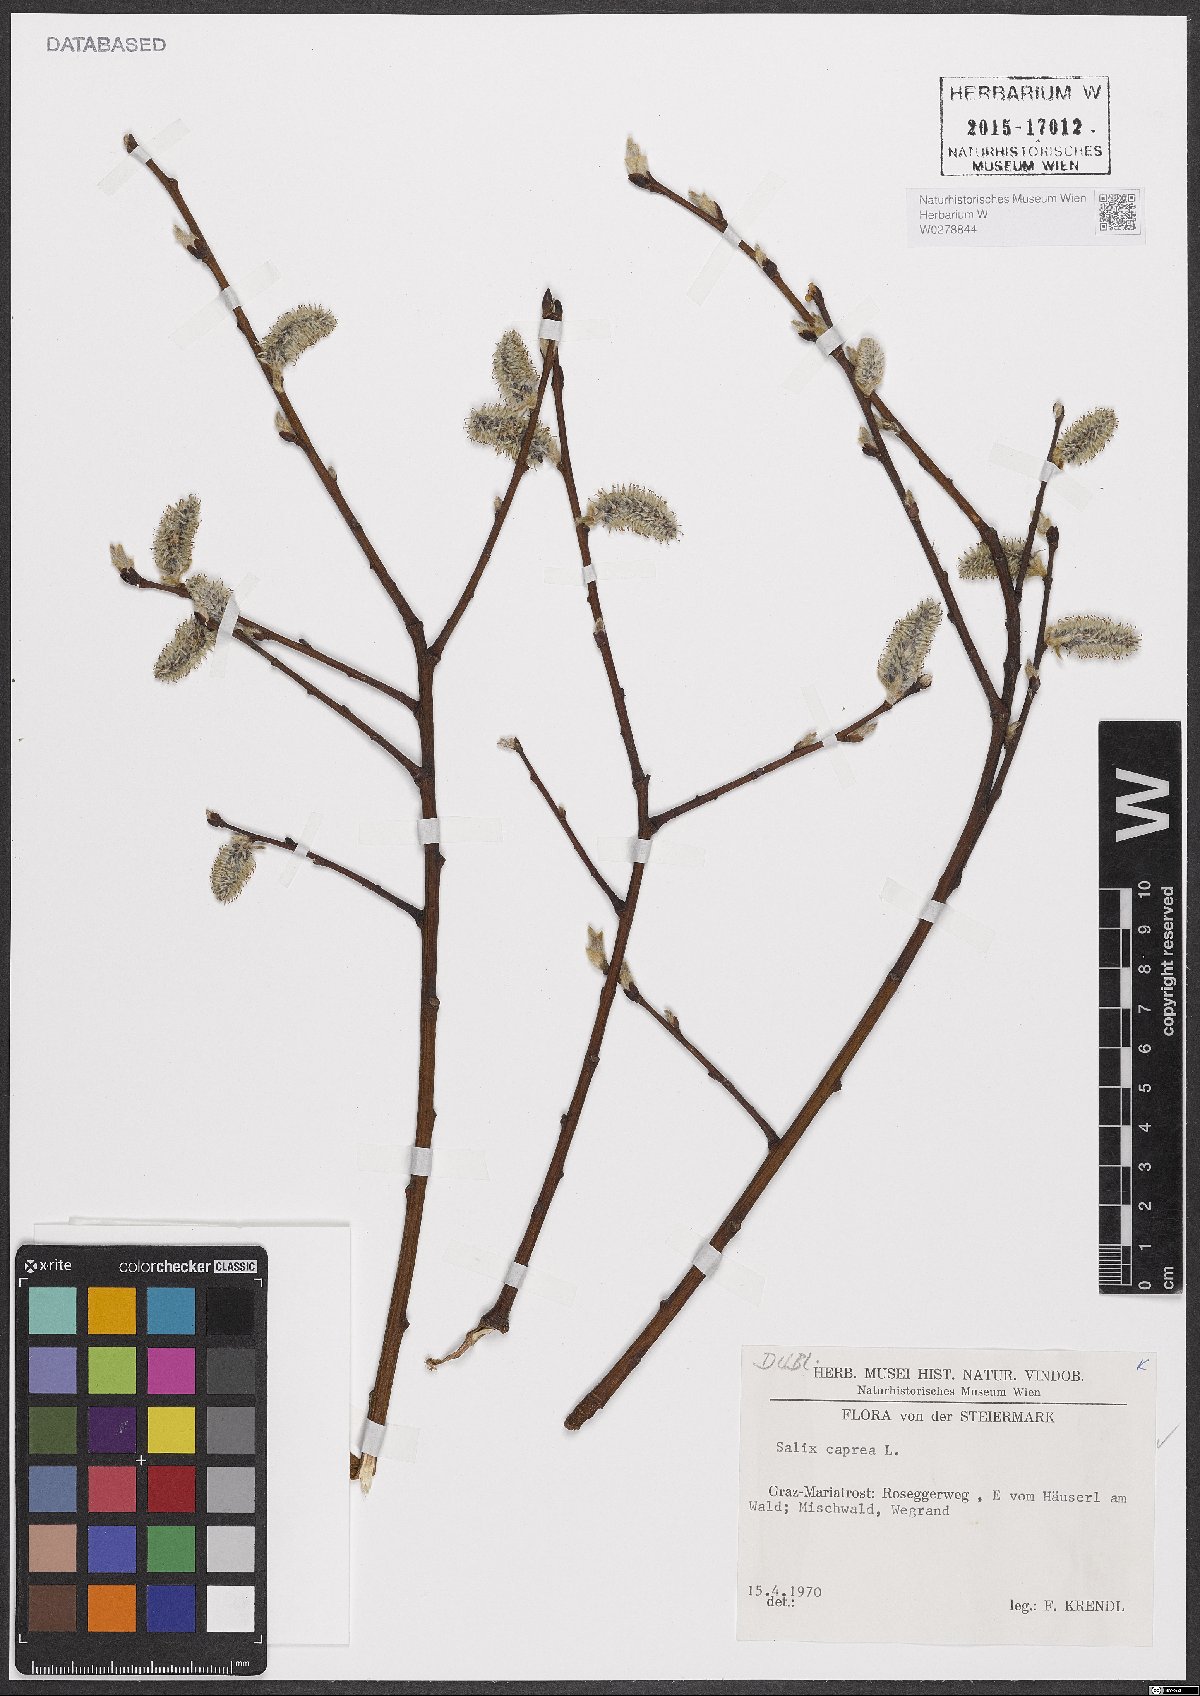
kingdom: Plantae
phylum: Tracheophyta
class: Magnoliopsida
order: Malpighiales
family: Salicaceae
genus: Salix
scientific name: Salix caprea
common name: Goat willow
